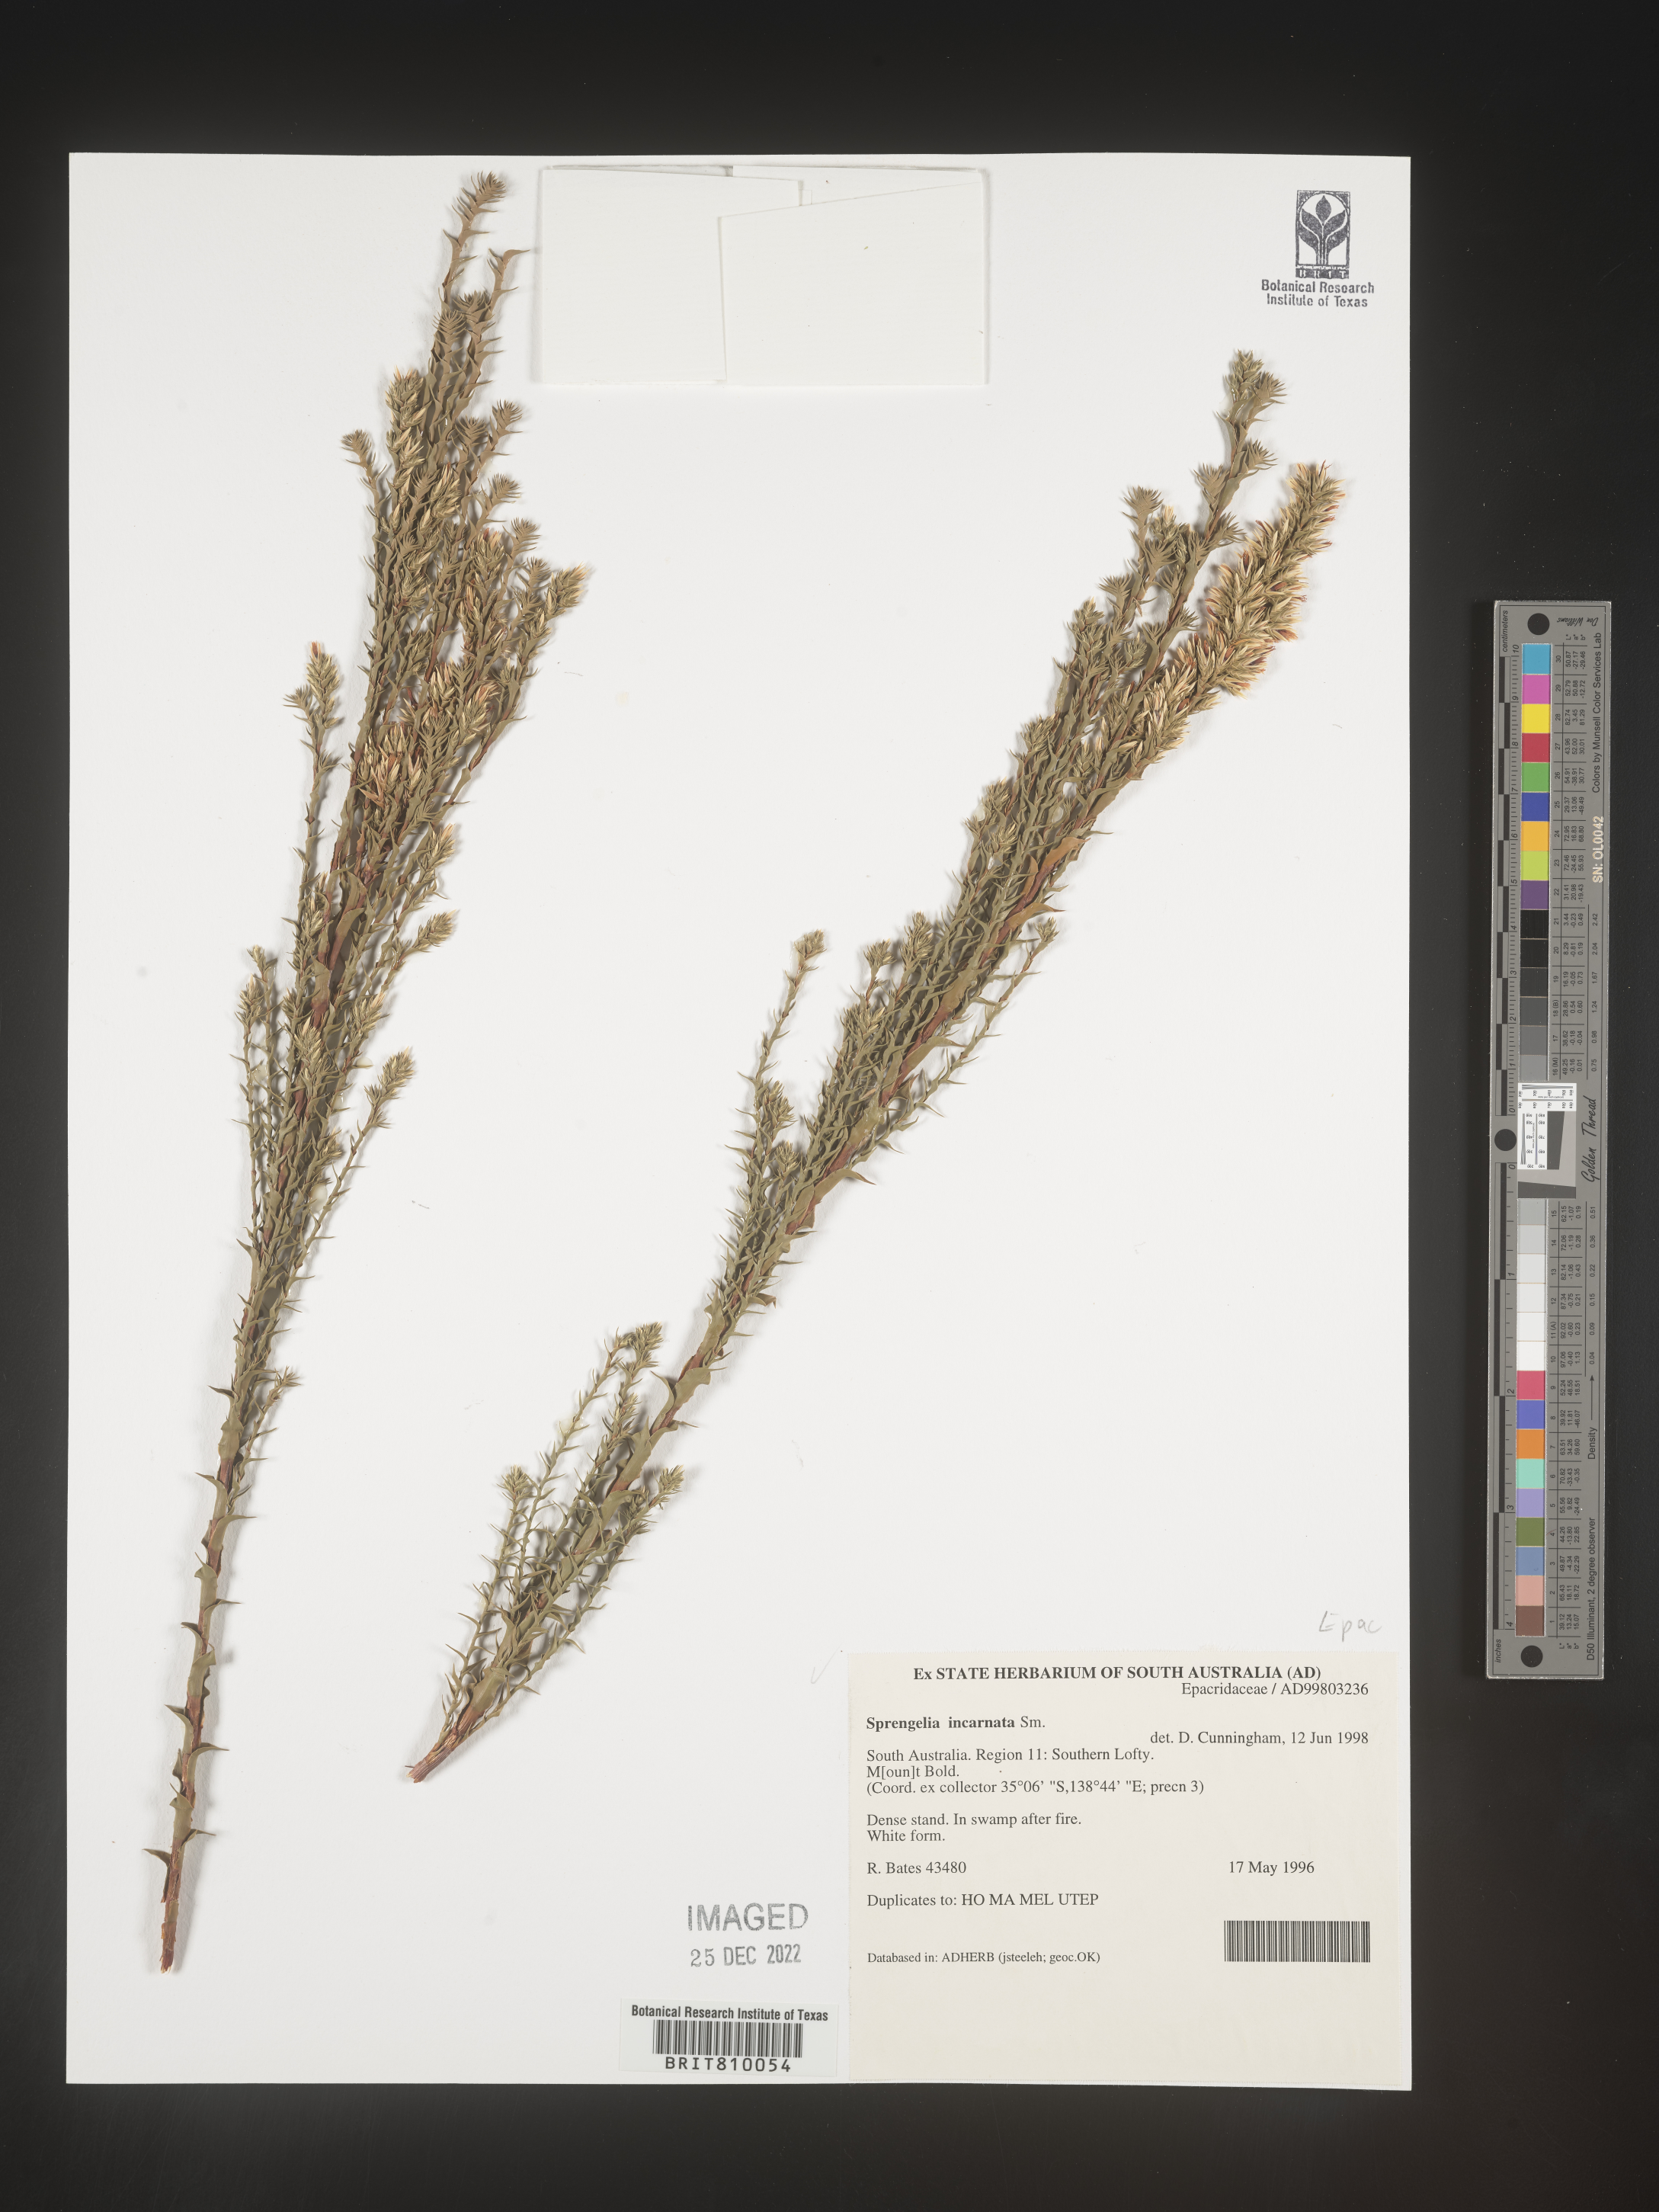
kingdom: Plantae
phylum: Tracheophyta
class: Magnoliopsida
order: Ericales
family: Ericaceae
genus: Sprengelia
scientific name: Sprengelia
